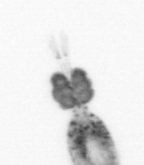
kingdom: Animalia
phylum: Arthropoda
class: Copepoda
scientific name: Copepoda
